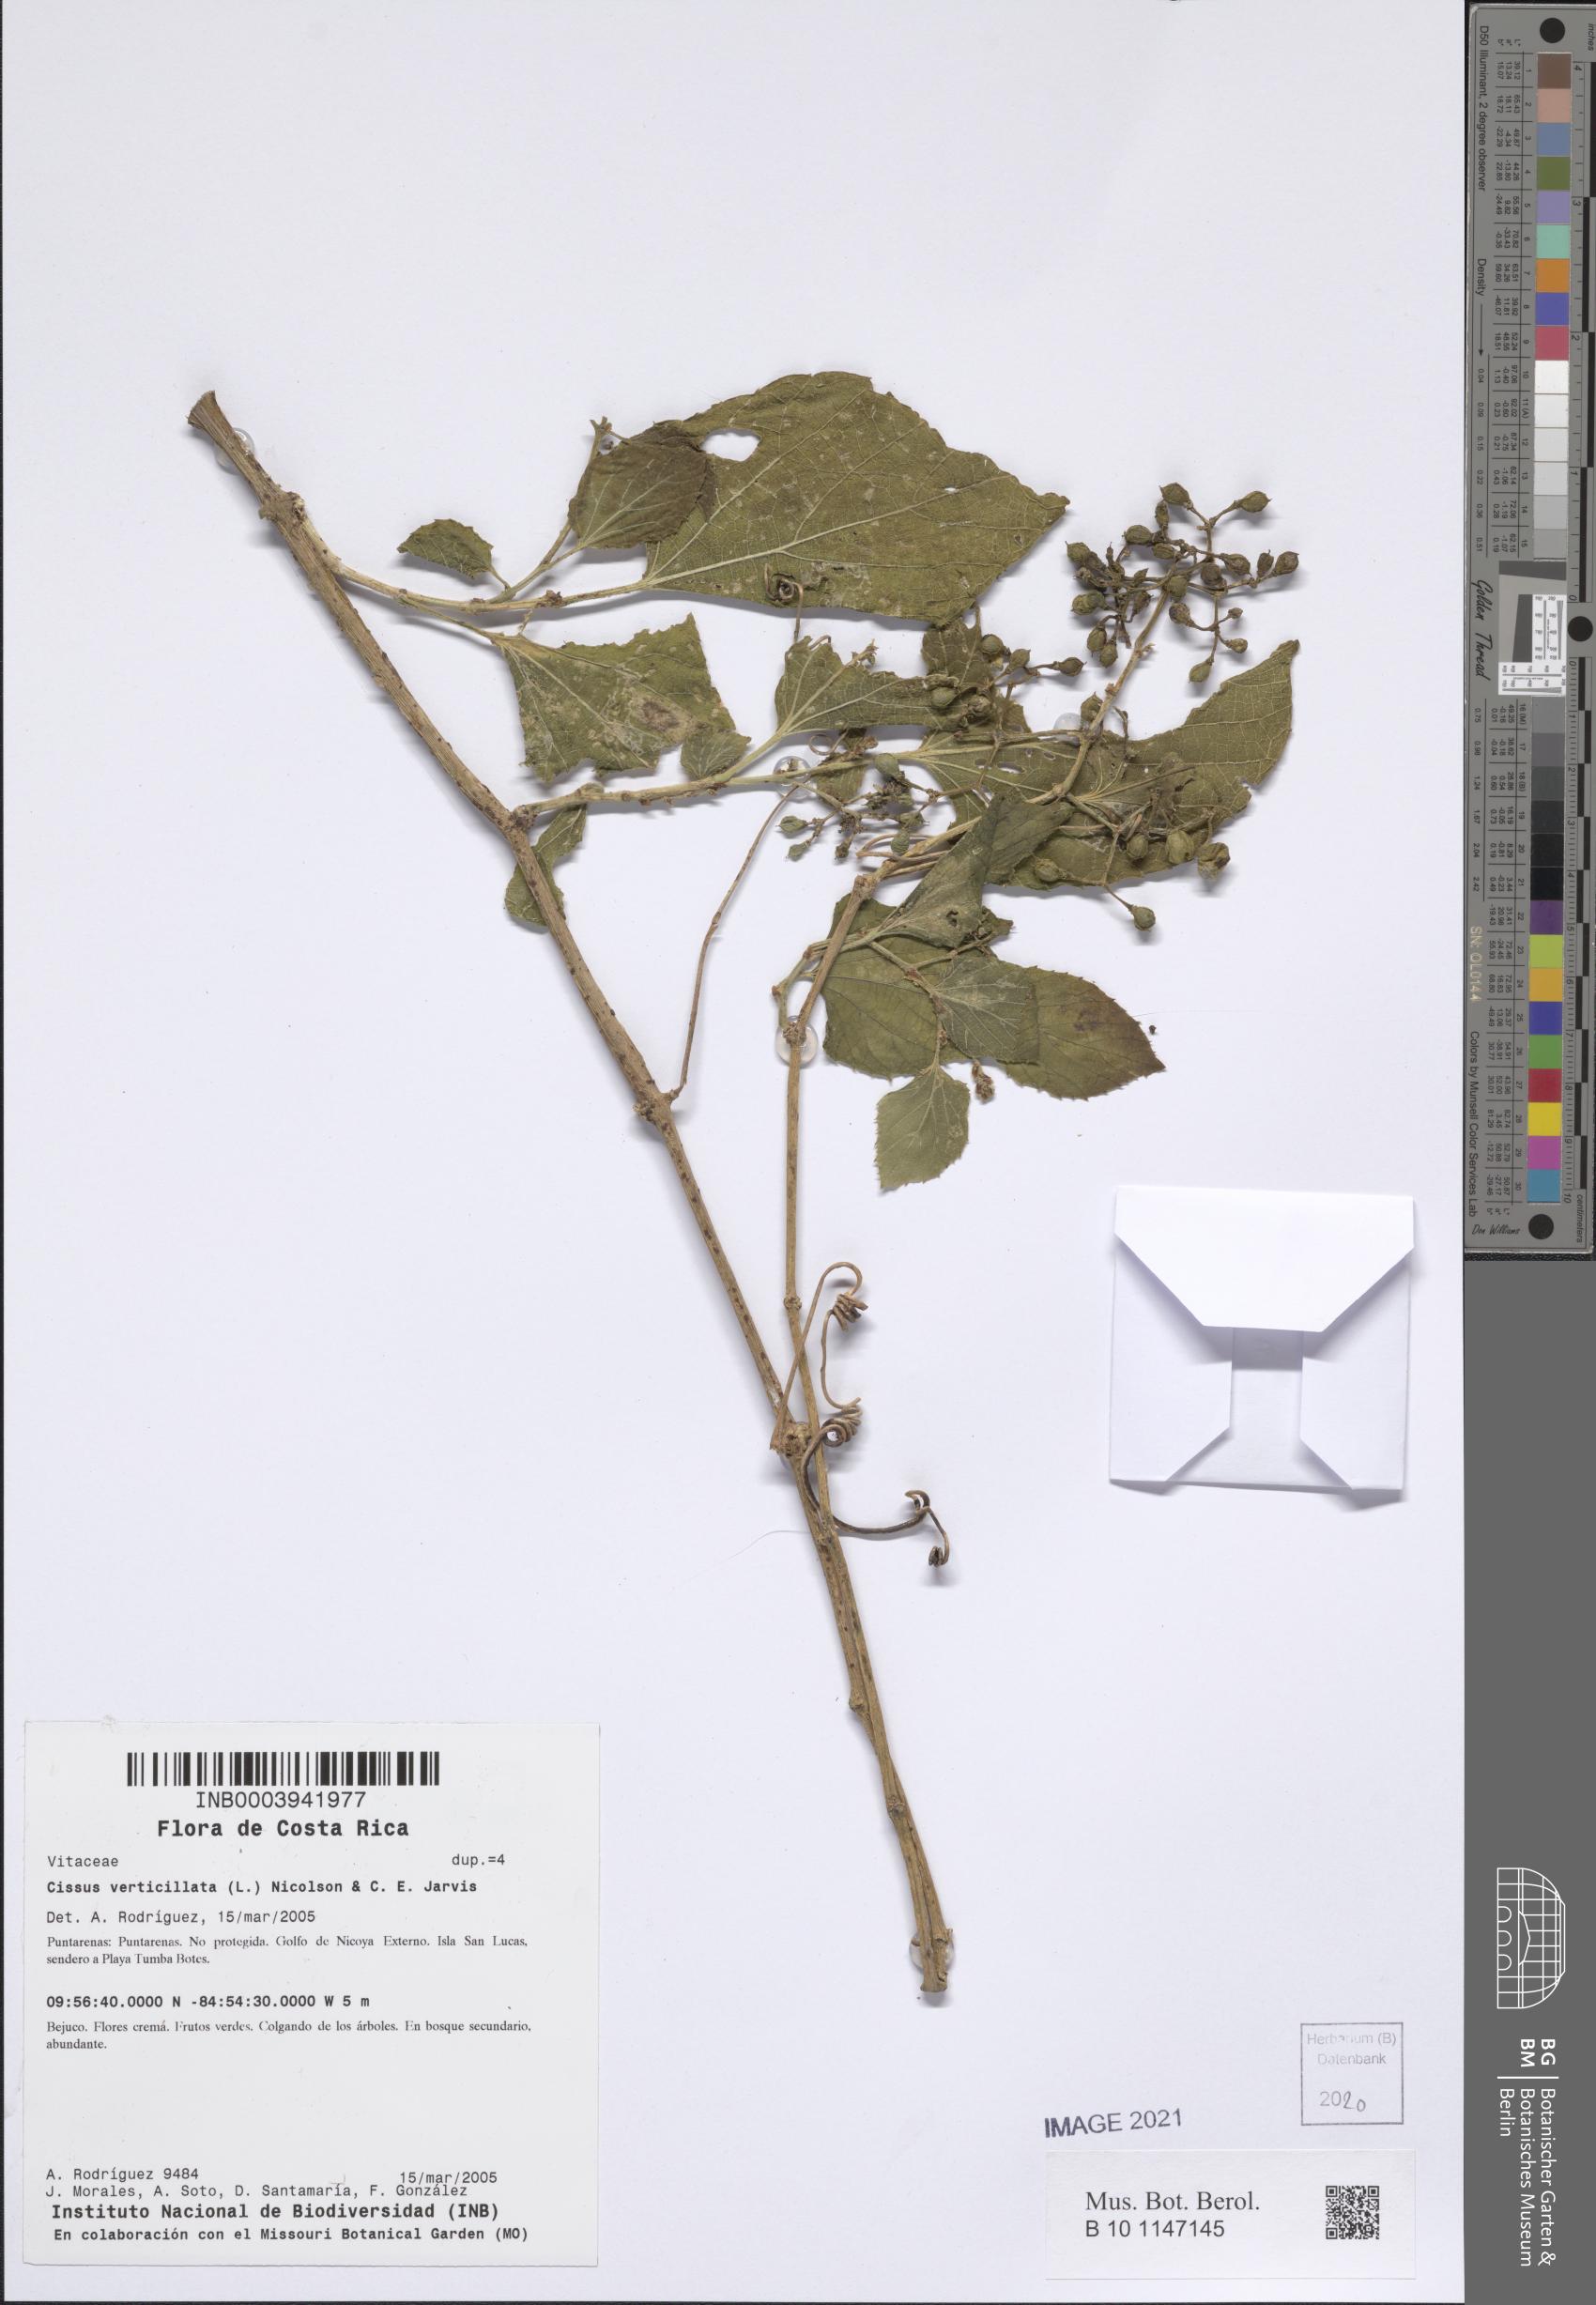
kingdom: Plantae
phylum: Tracheophyta
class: Magnoliopsida
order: Vitales
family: Vitaceae
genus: Cissus
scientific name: Cissus verticillata
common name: Princess vine
